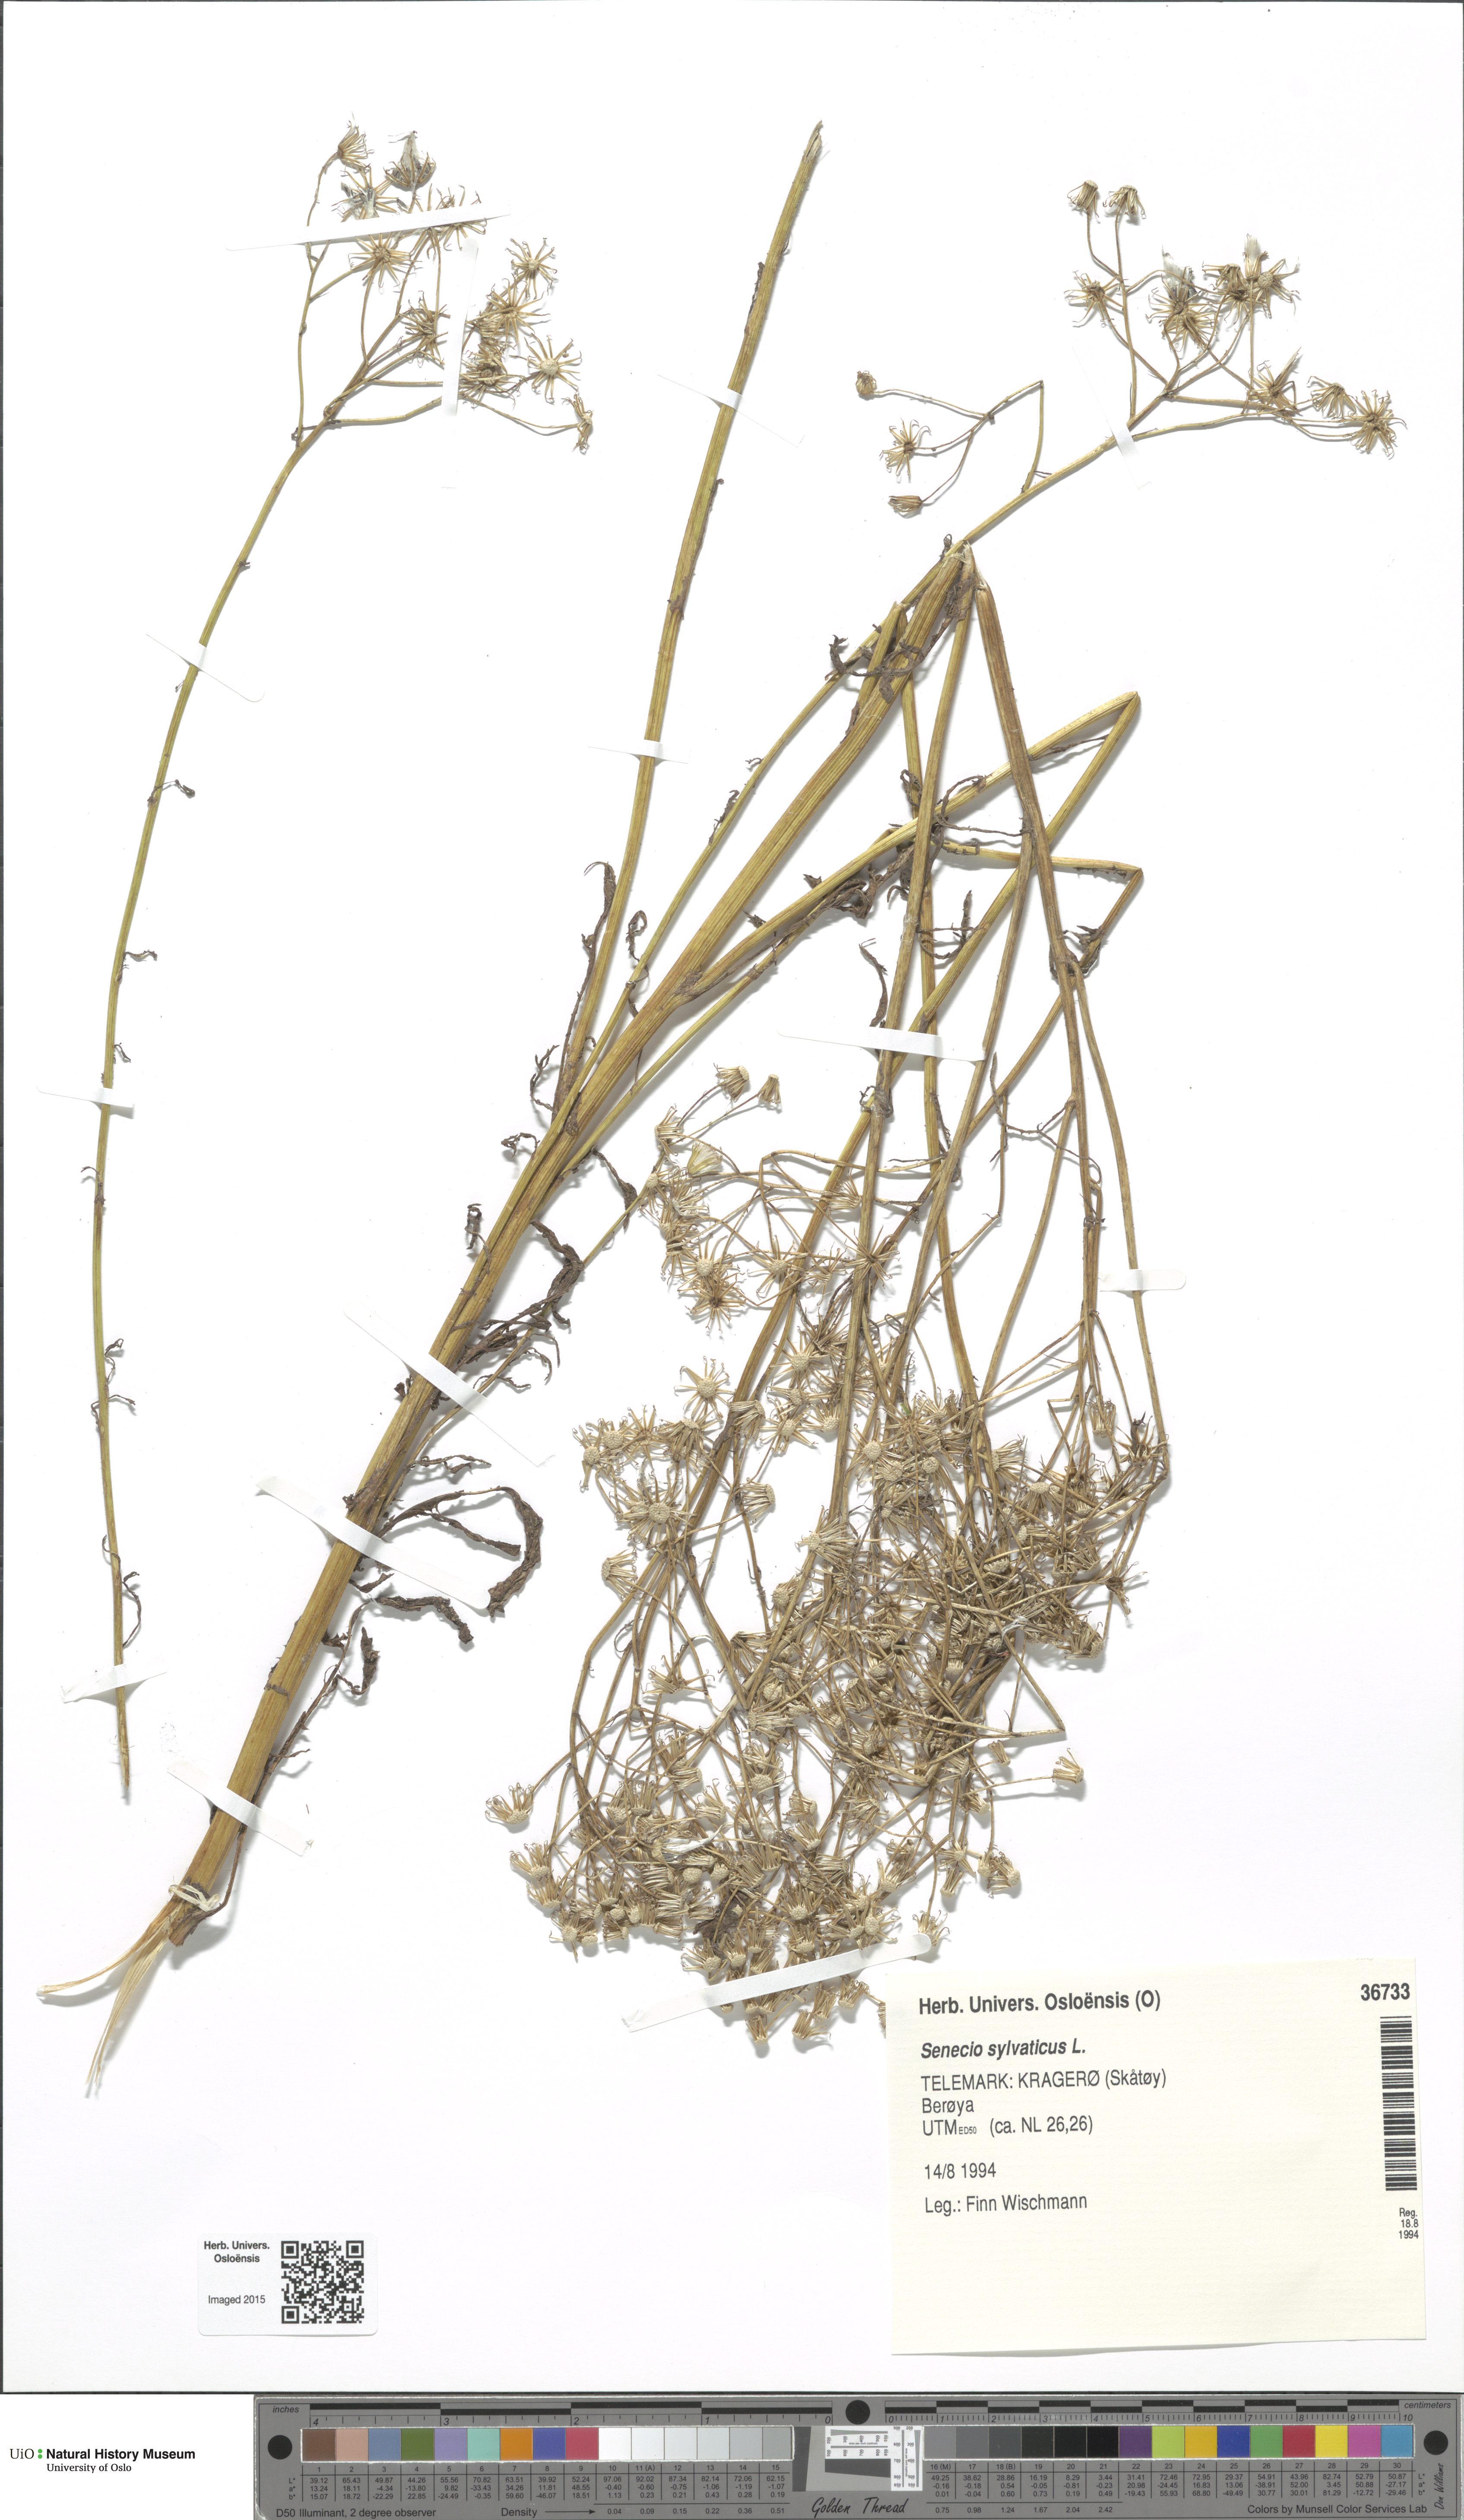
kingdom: Plantae
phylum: Tracheophyta
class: Magnoliopsida
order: Asterales
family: Asteraceae
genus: Senecio
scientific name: Senecio sylvaticus
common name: Woodland ragwort
